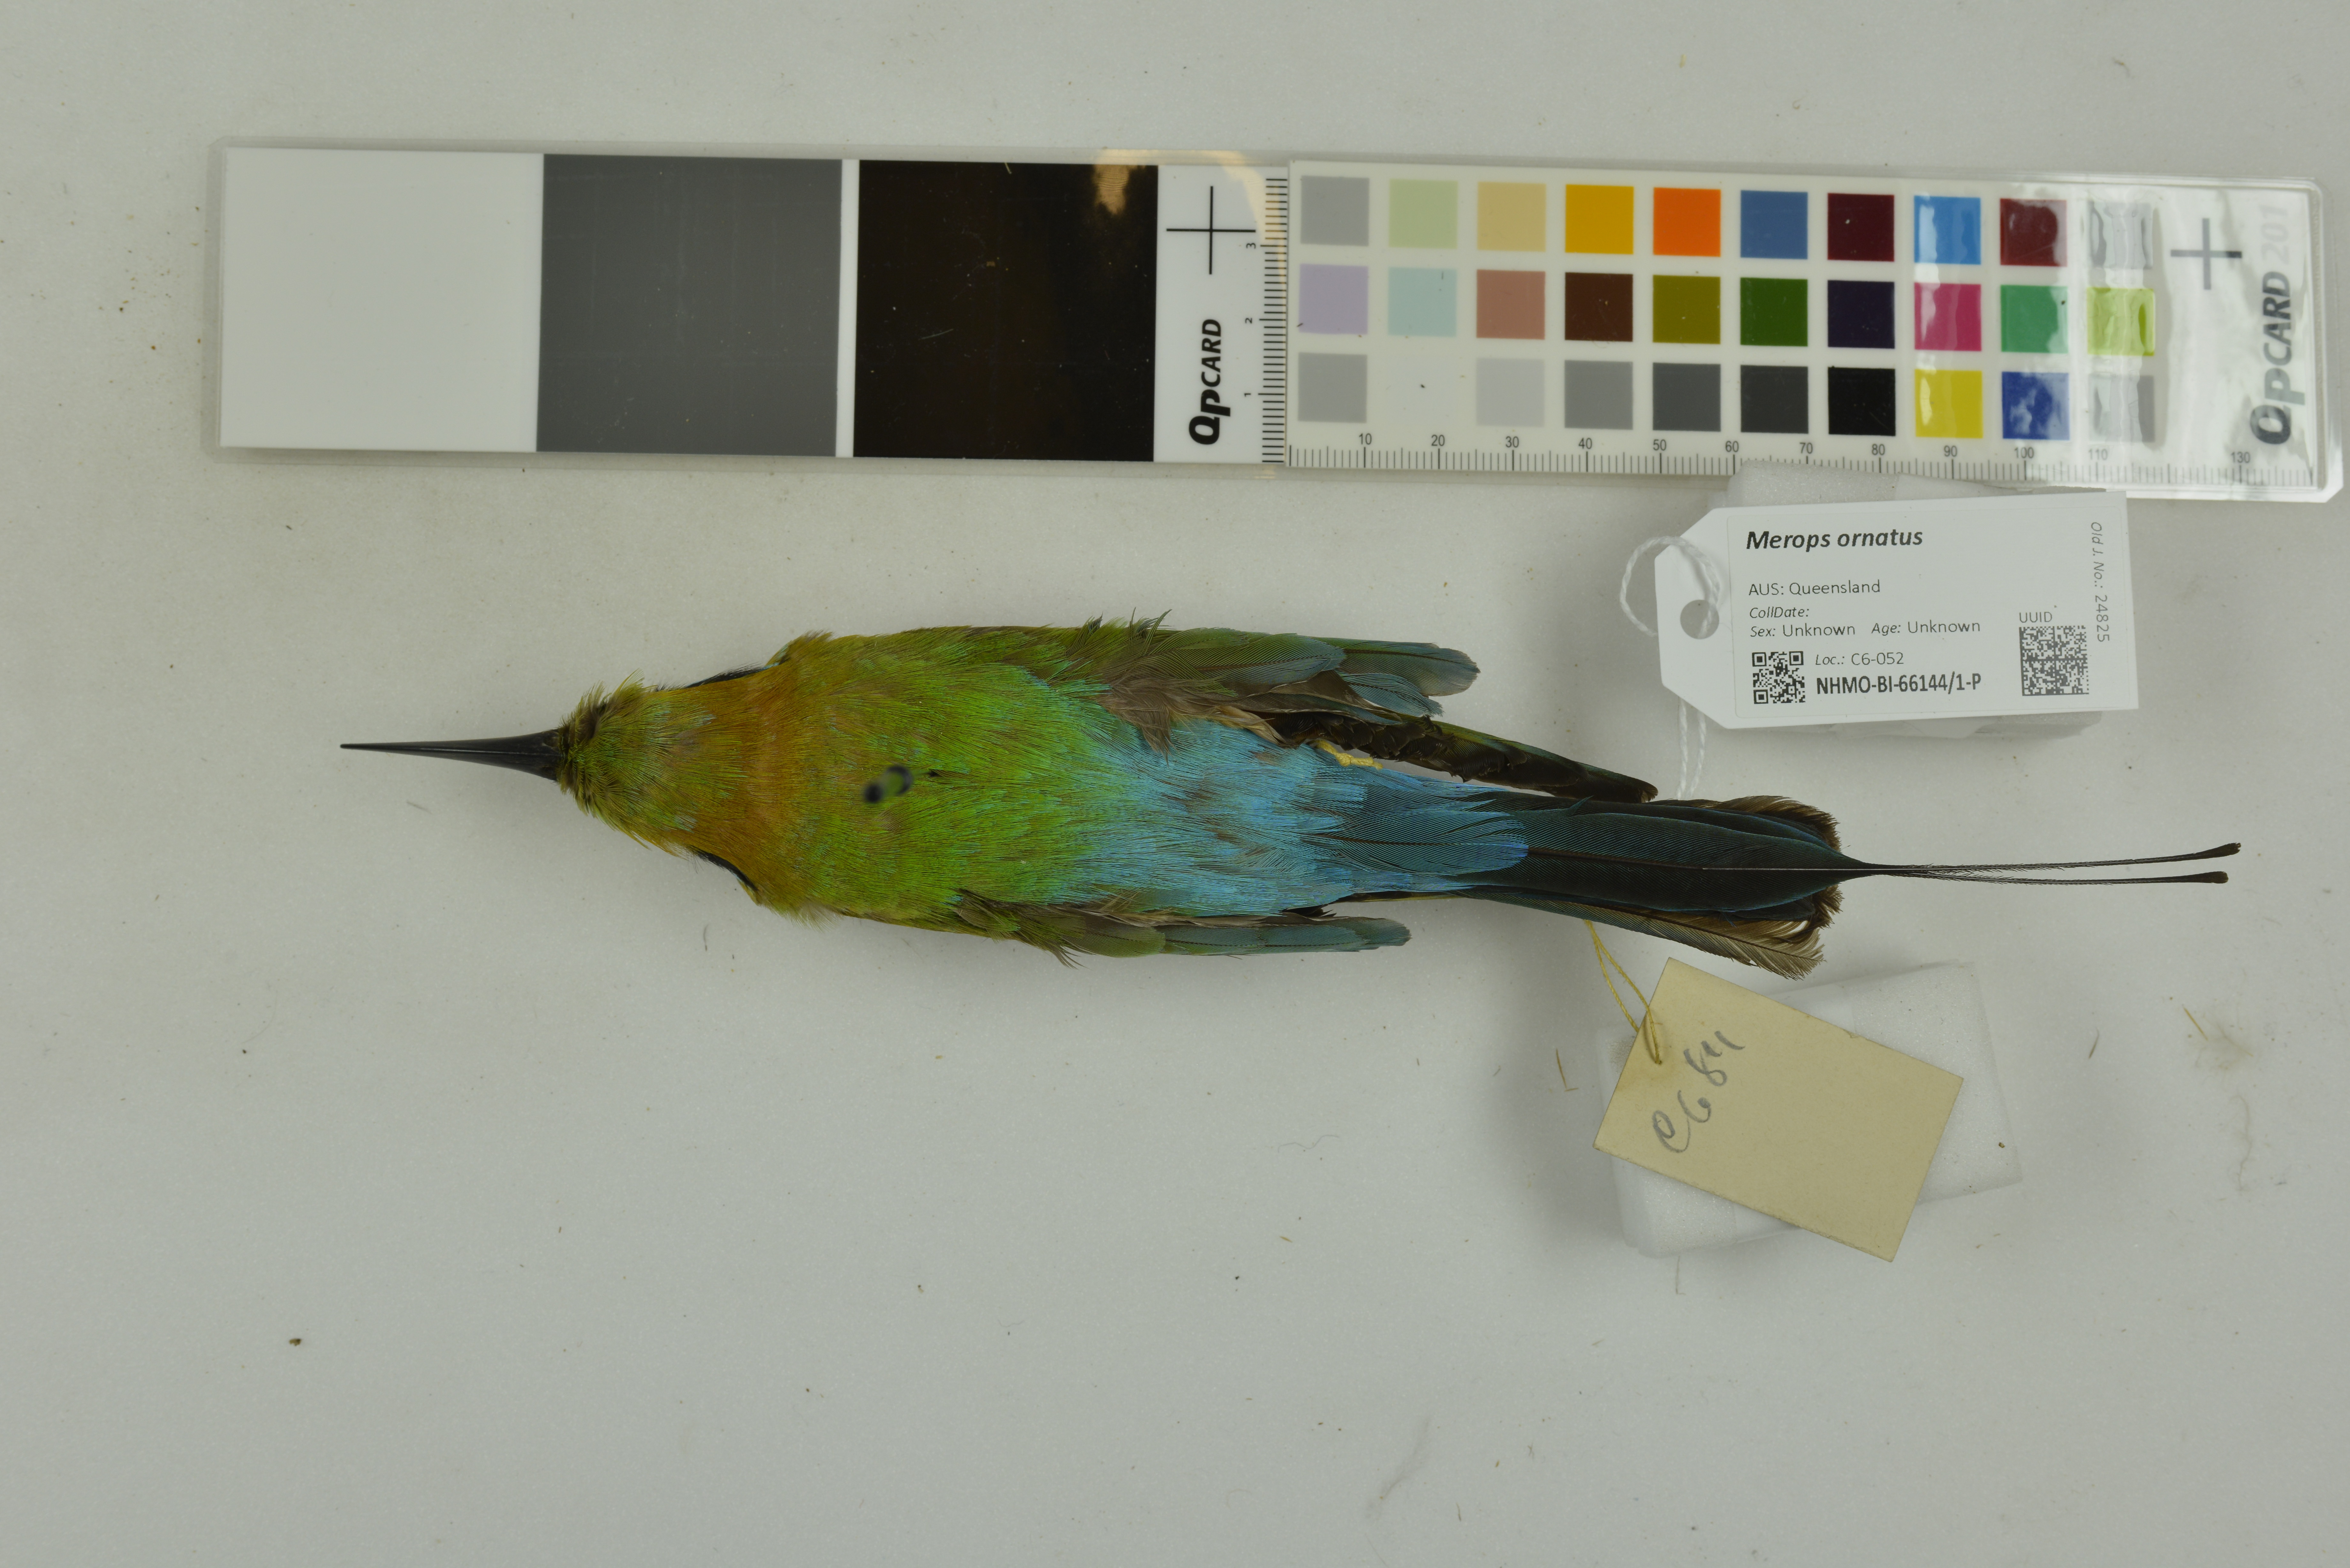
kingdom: Animalia
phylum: Chordata
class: Aves
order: Coraciiformes
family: Meropidae
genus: Merops
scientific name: Merops ornatus
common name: Rainbow bee-eater
